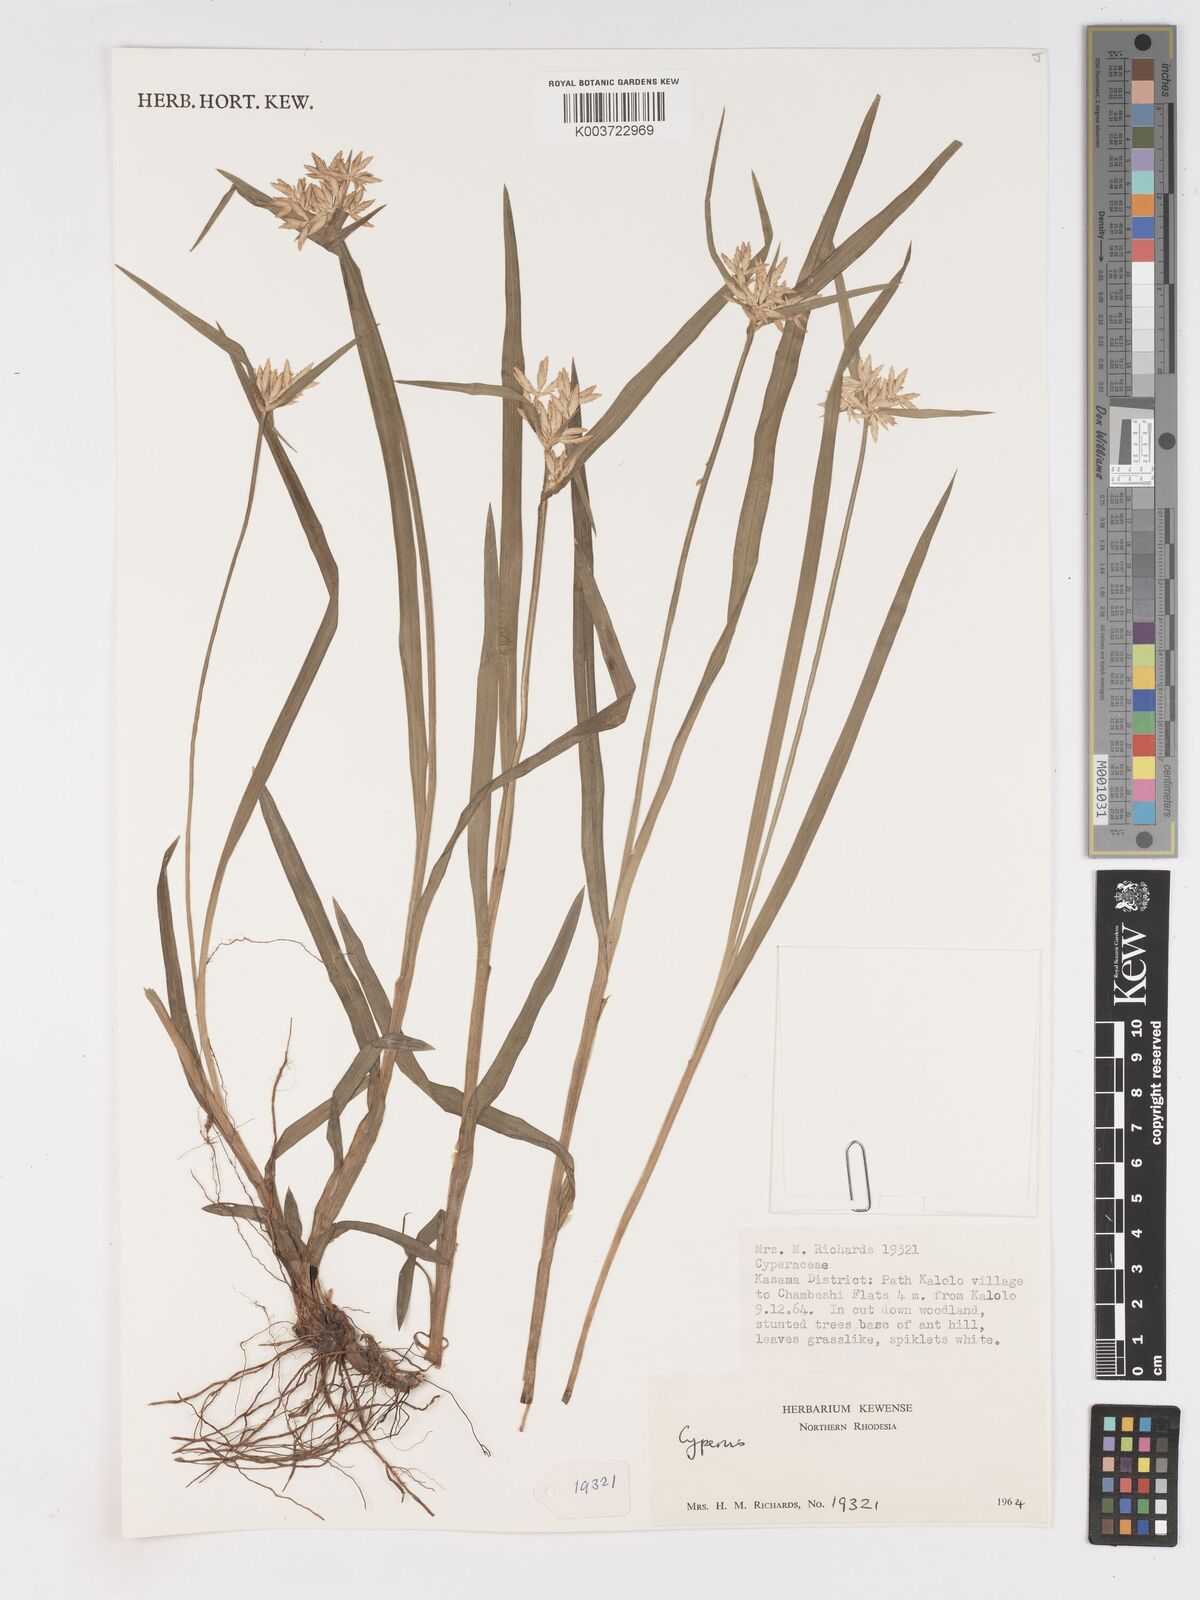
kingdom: Plantae
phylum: Tracheophyta
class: Liliopsida
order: Poales
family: Cyperaceae
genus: Cyperus
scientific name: Cyperus chinsalensis
